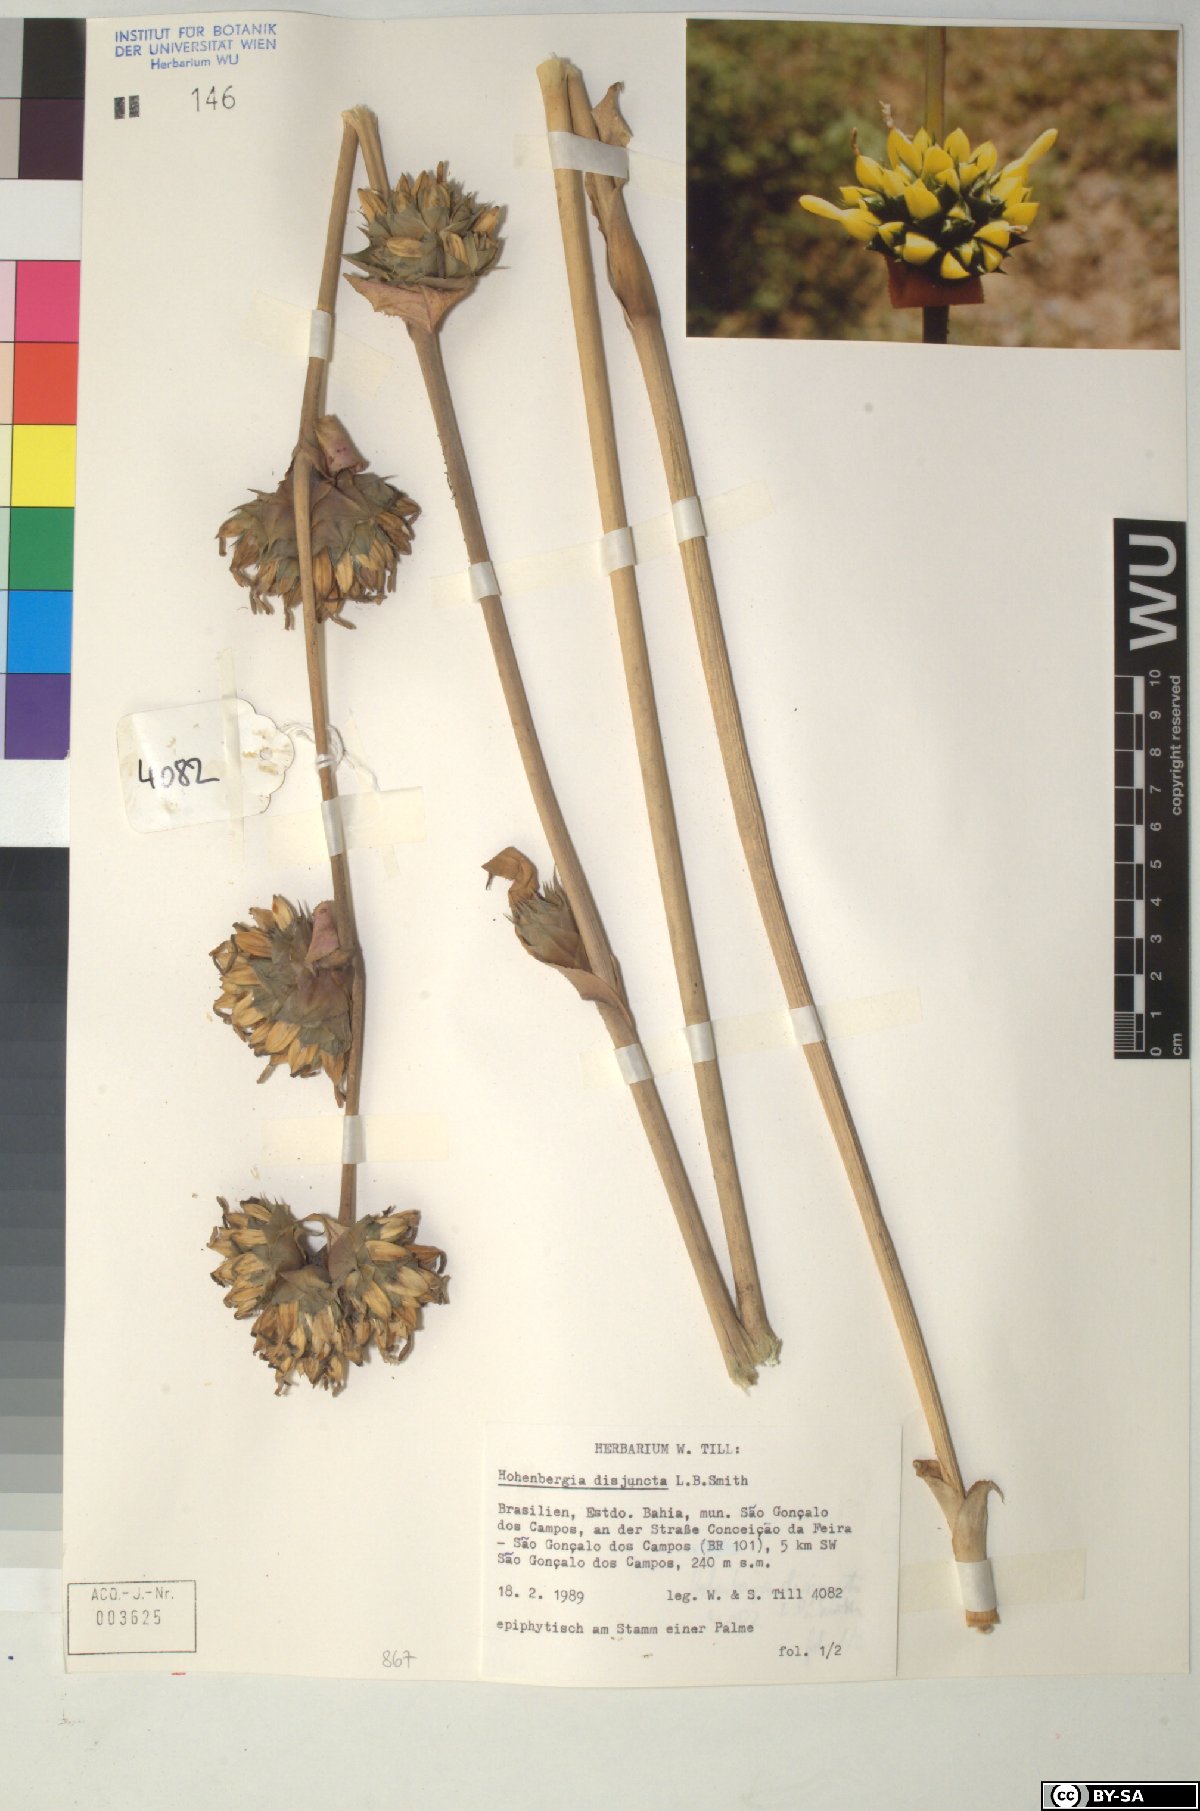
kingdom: Plantae
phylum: Tracheophyta
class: Liliopsida
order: Poales
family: Bromeliaceae
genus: Hohenbergia
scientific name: Hohenbergia
